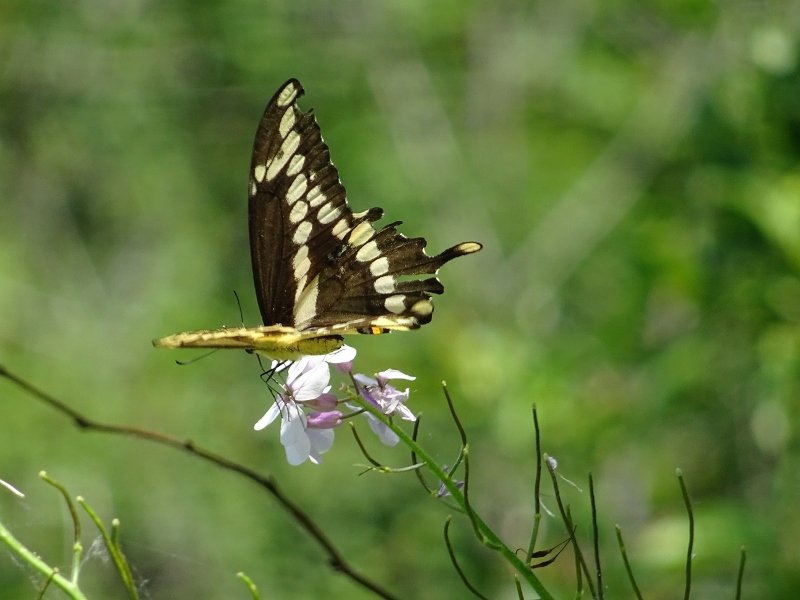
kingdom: Animalia
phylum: Arthropoda
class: Insecta
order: Lepidoptera
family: Papilionidae
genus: Papilio
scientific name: Papilio cresphontes
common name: Eastern Giant Swallowtail
